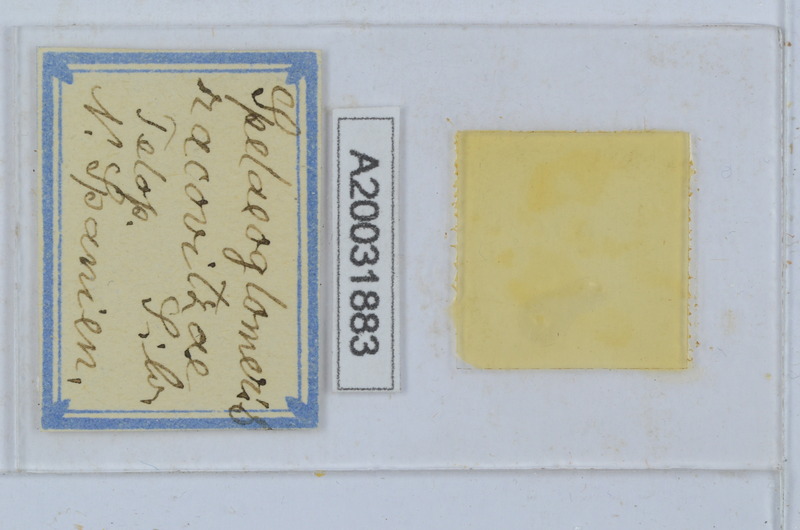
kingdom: Animalia
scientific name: Animalia
